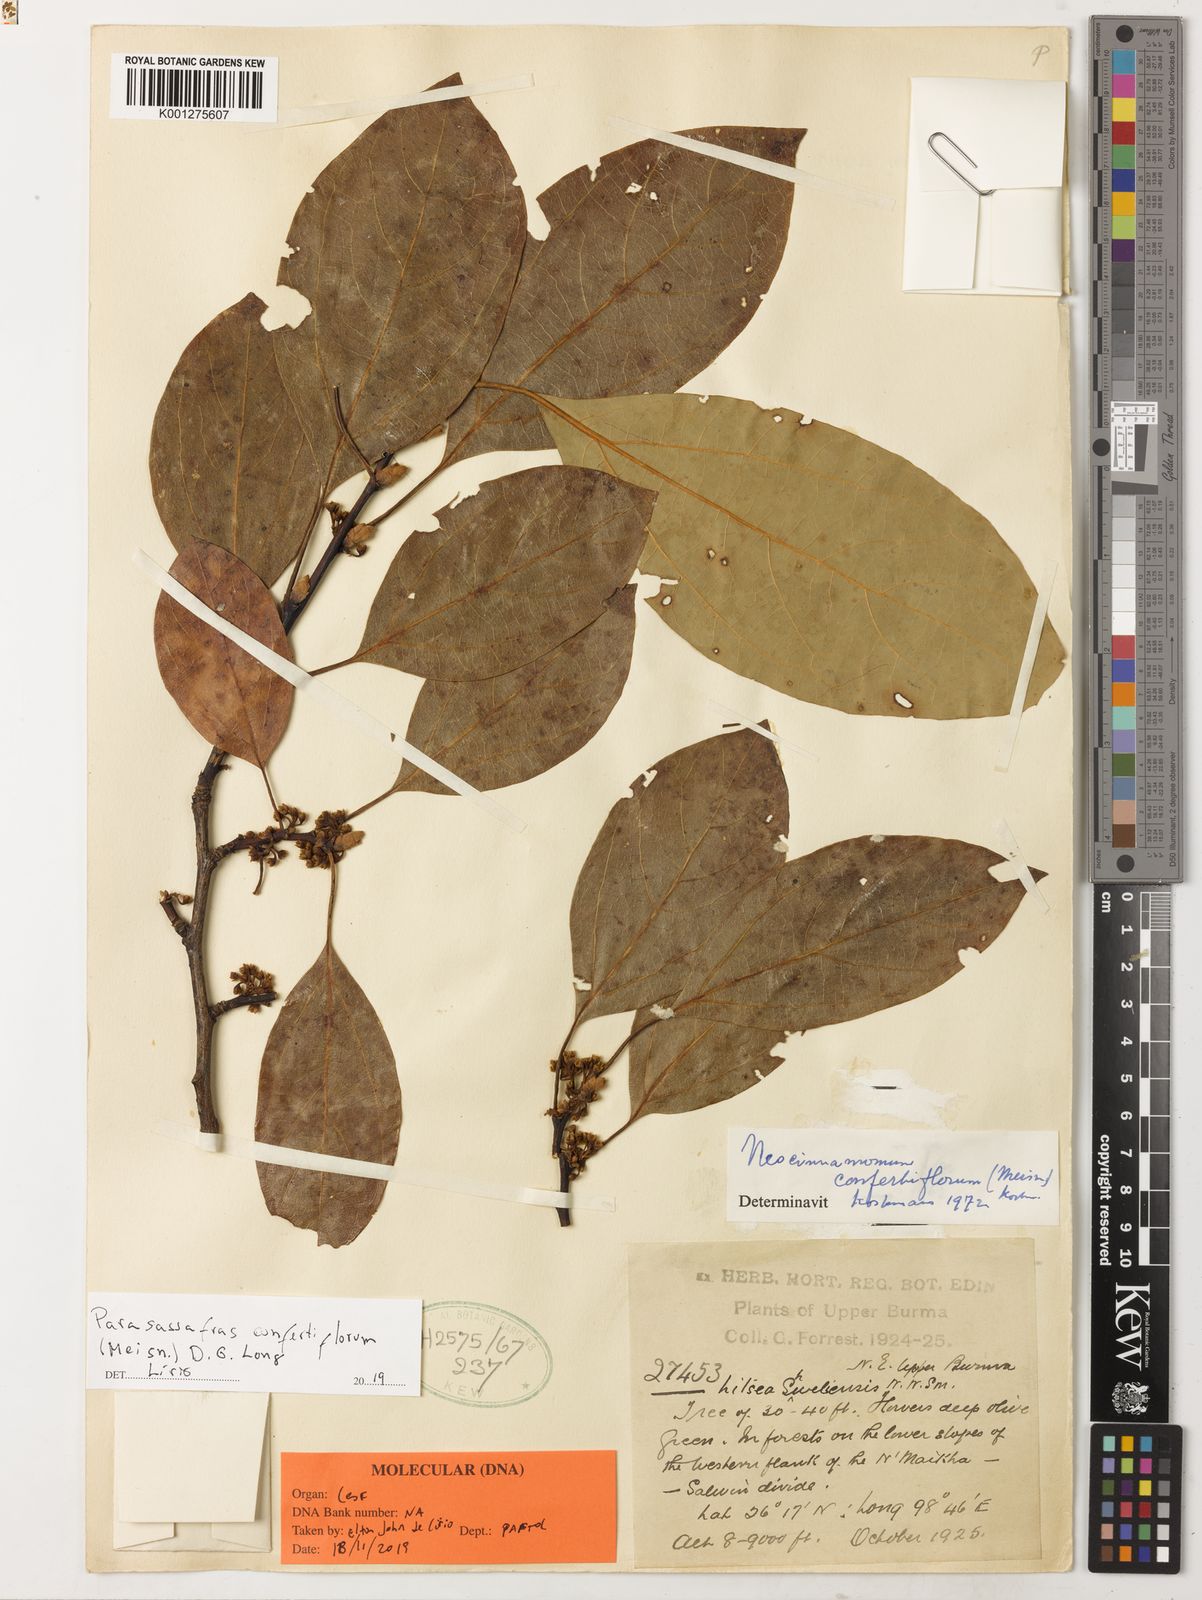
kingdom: Plantae
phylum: Tracheophyta
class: Magnoliopsida
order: Laurales
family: Lauraceae
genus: Parasassafras
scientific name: Parasassafras confertiflora
